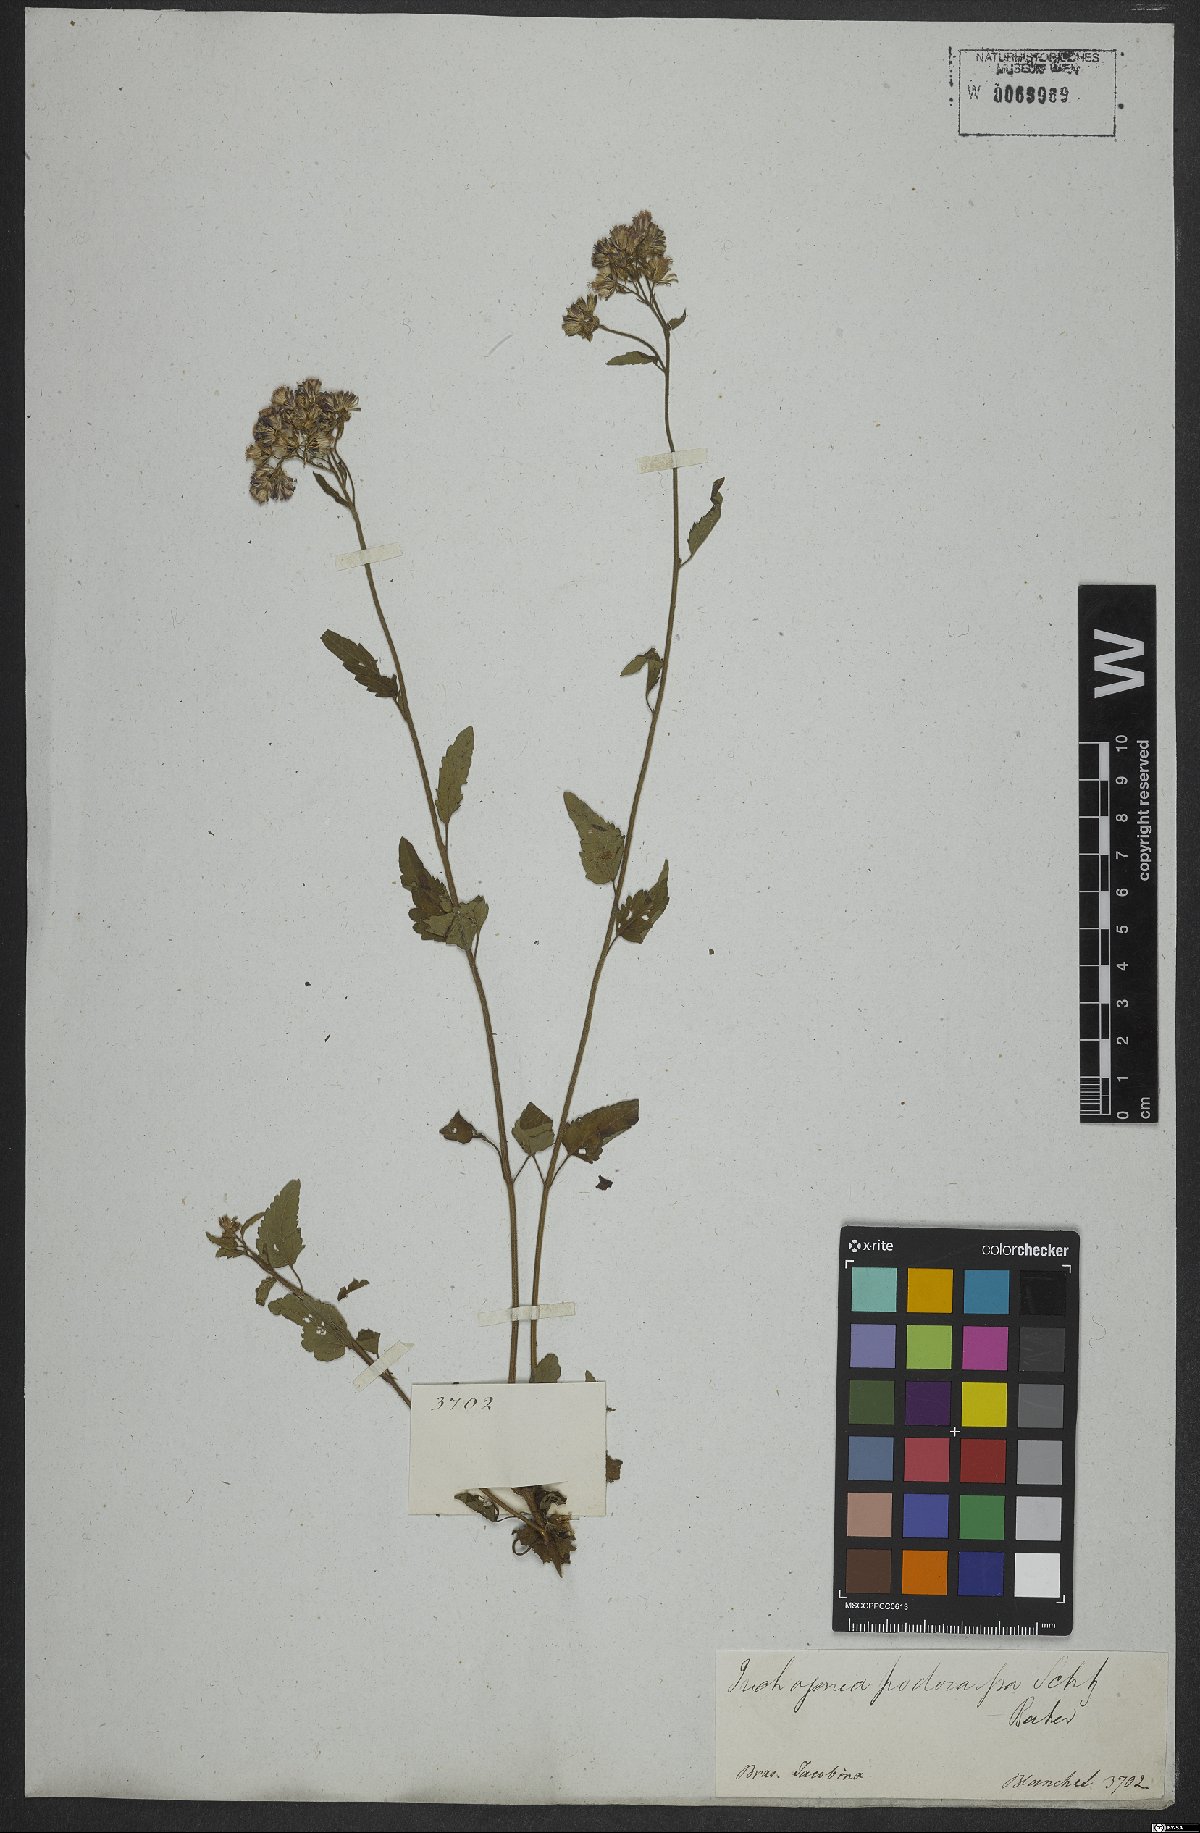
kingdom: Plantae
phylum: Tracheophyta
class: Magnoliopsida
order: Asterales
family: Asteraceae
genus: Trichogoniopsis
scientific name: Trichogoniopsis podocarpa
